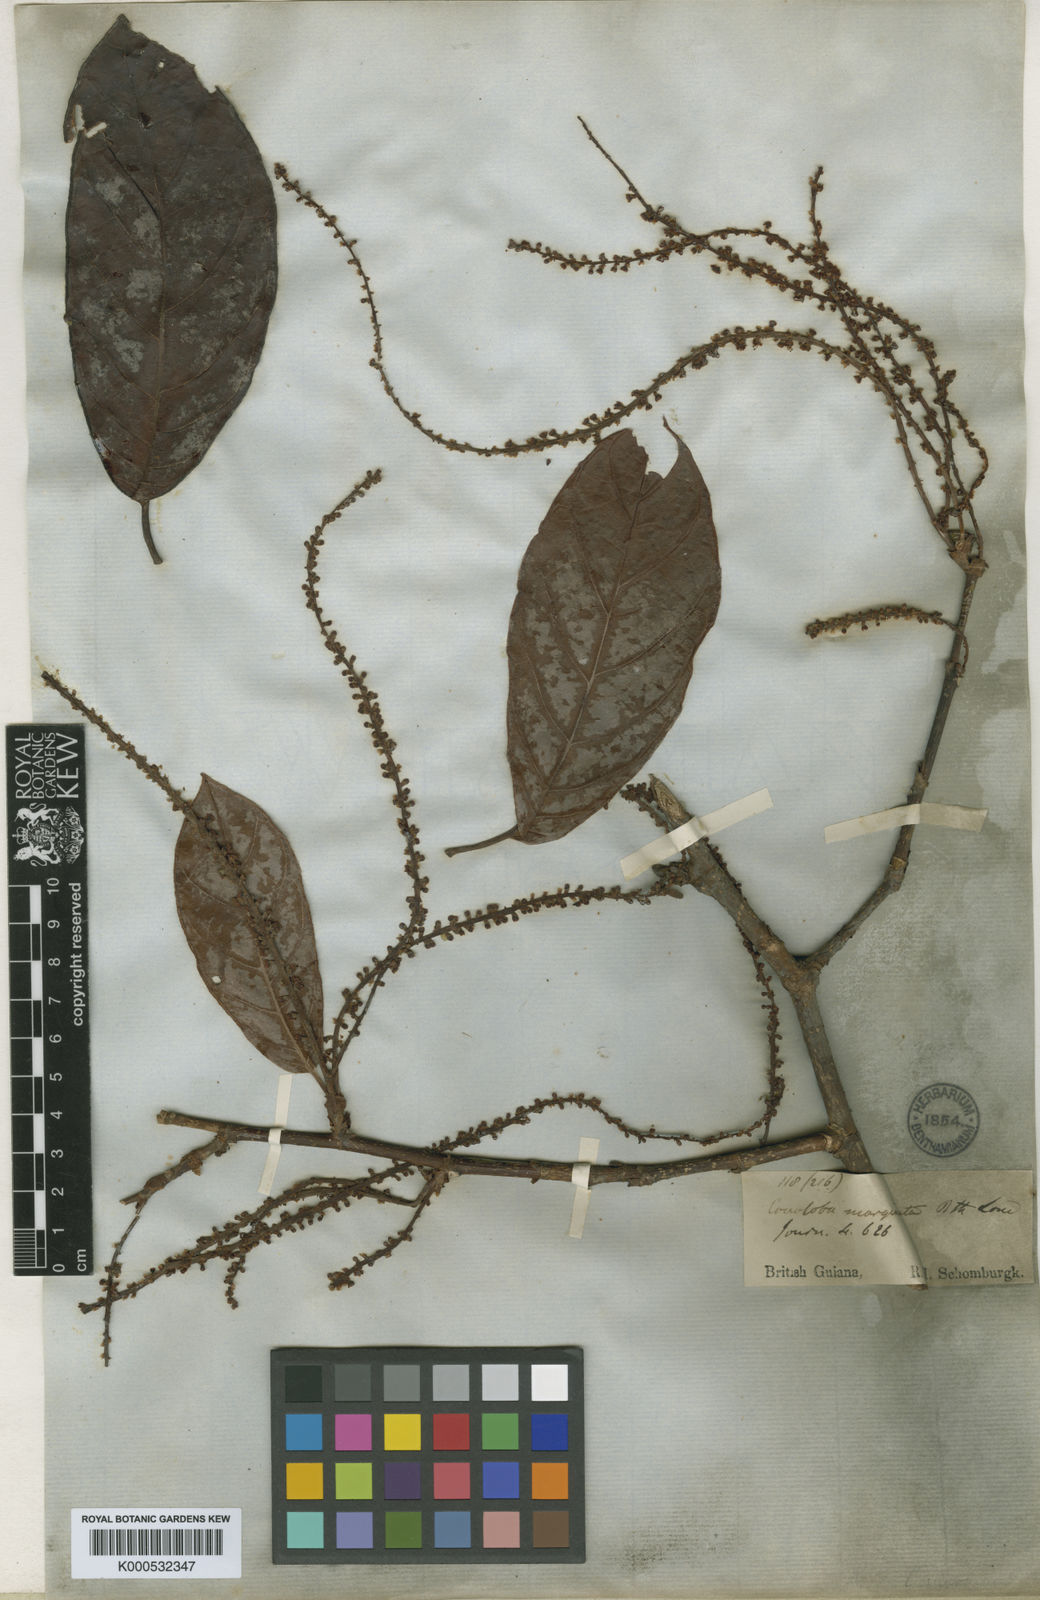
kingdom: Plantae
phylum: Tracheophyta
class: Magnoliopsida
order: Caryophyllales
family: Polygonaceae
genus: Coccoloba
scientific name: Coccoloba nitida
